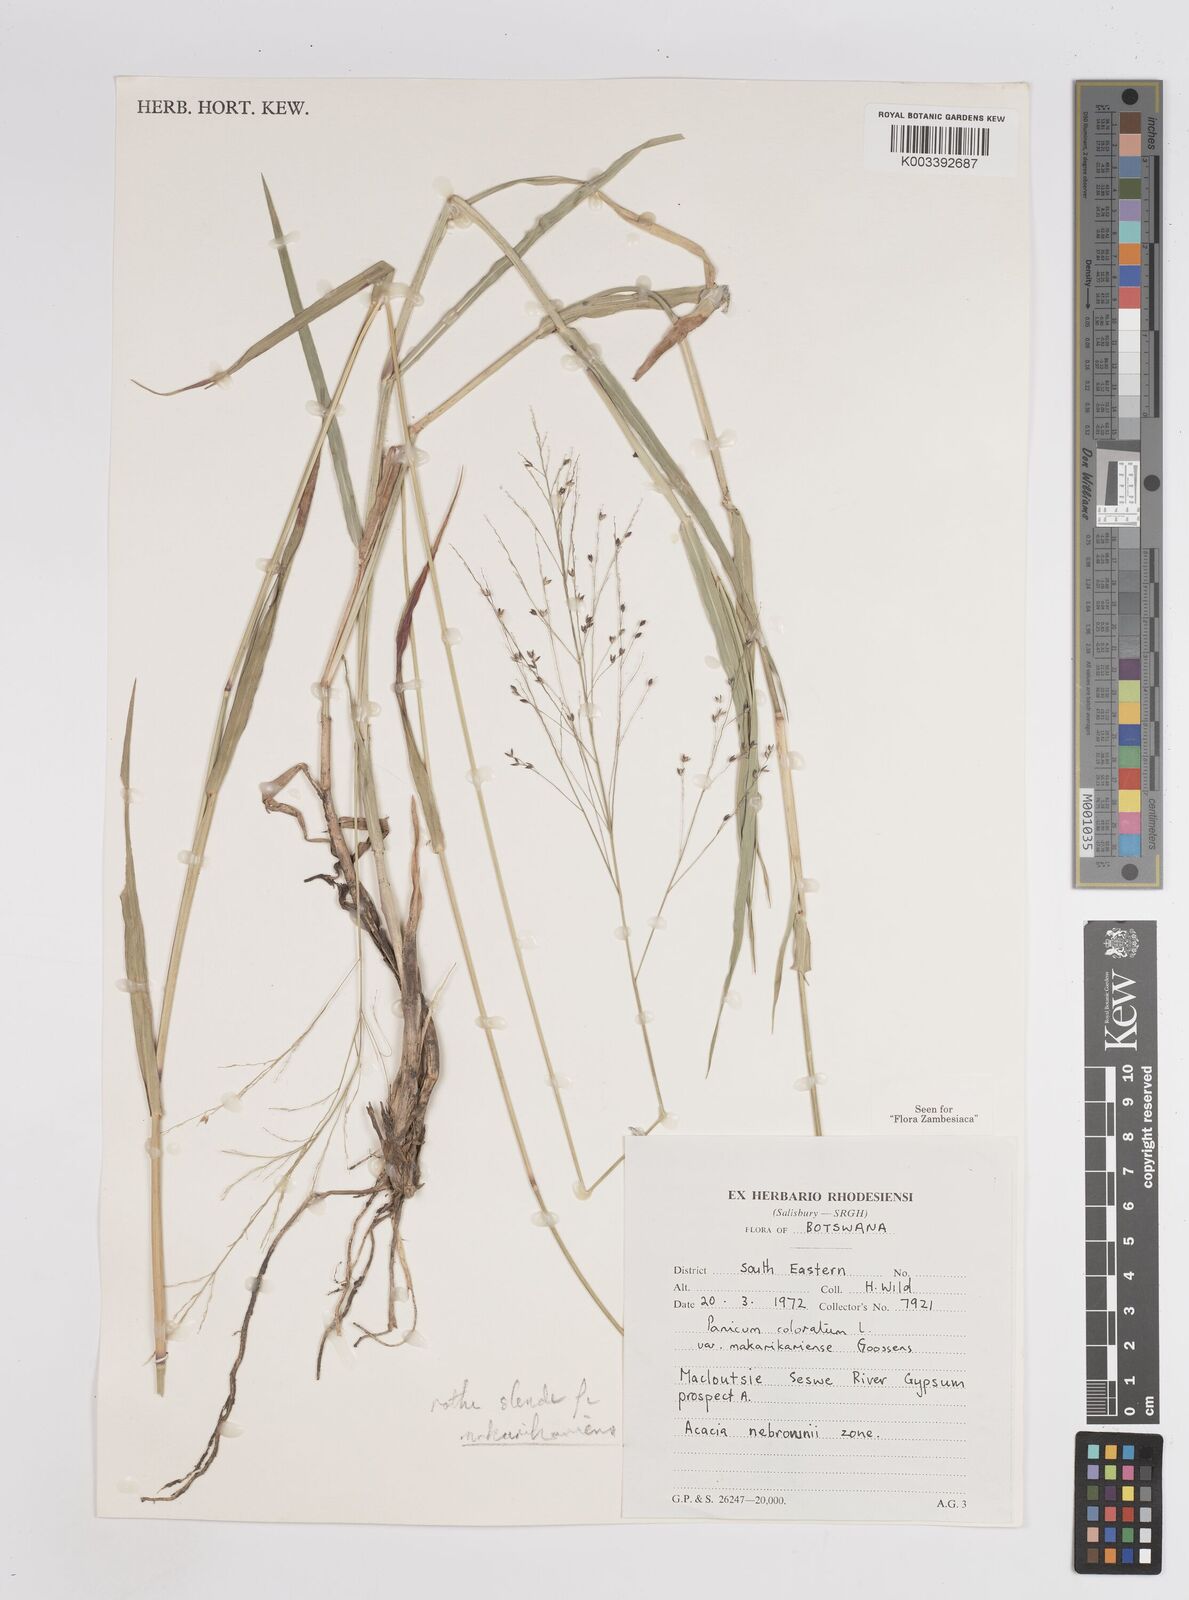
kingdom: Plantae
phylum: Tracheophyta
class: Liliopsida
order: Poales
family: Poaceae
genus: Panicum
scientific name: Panicum coloratum
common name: Kleingrass
